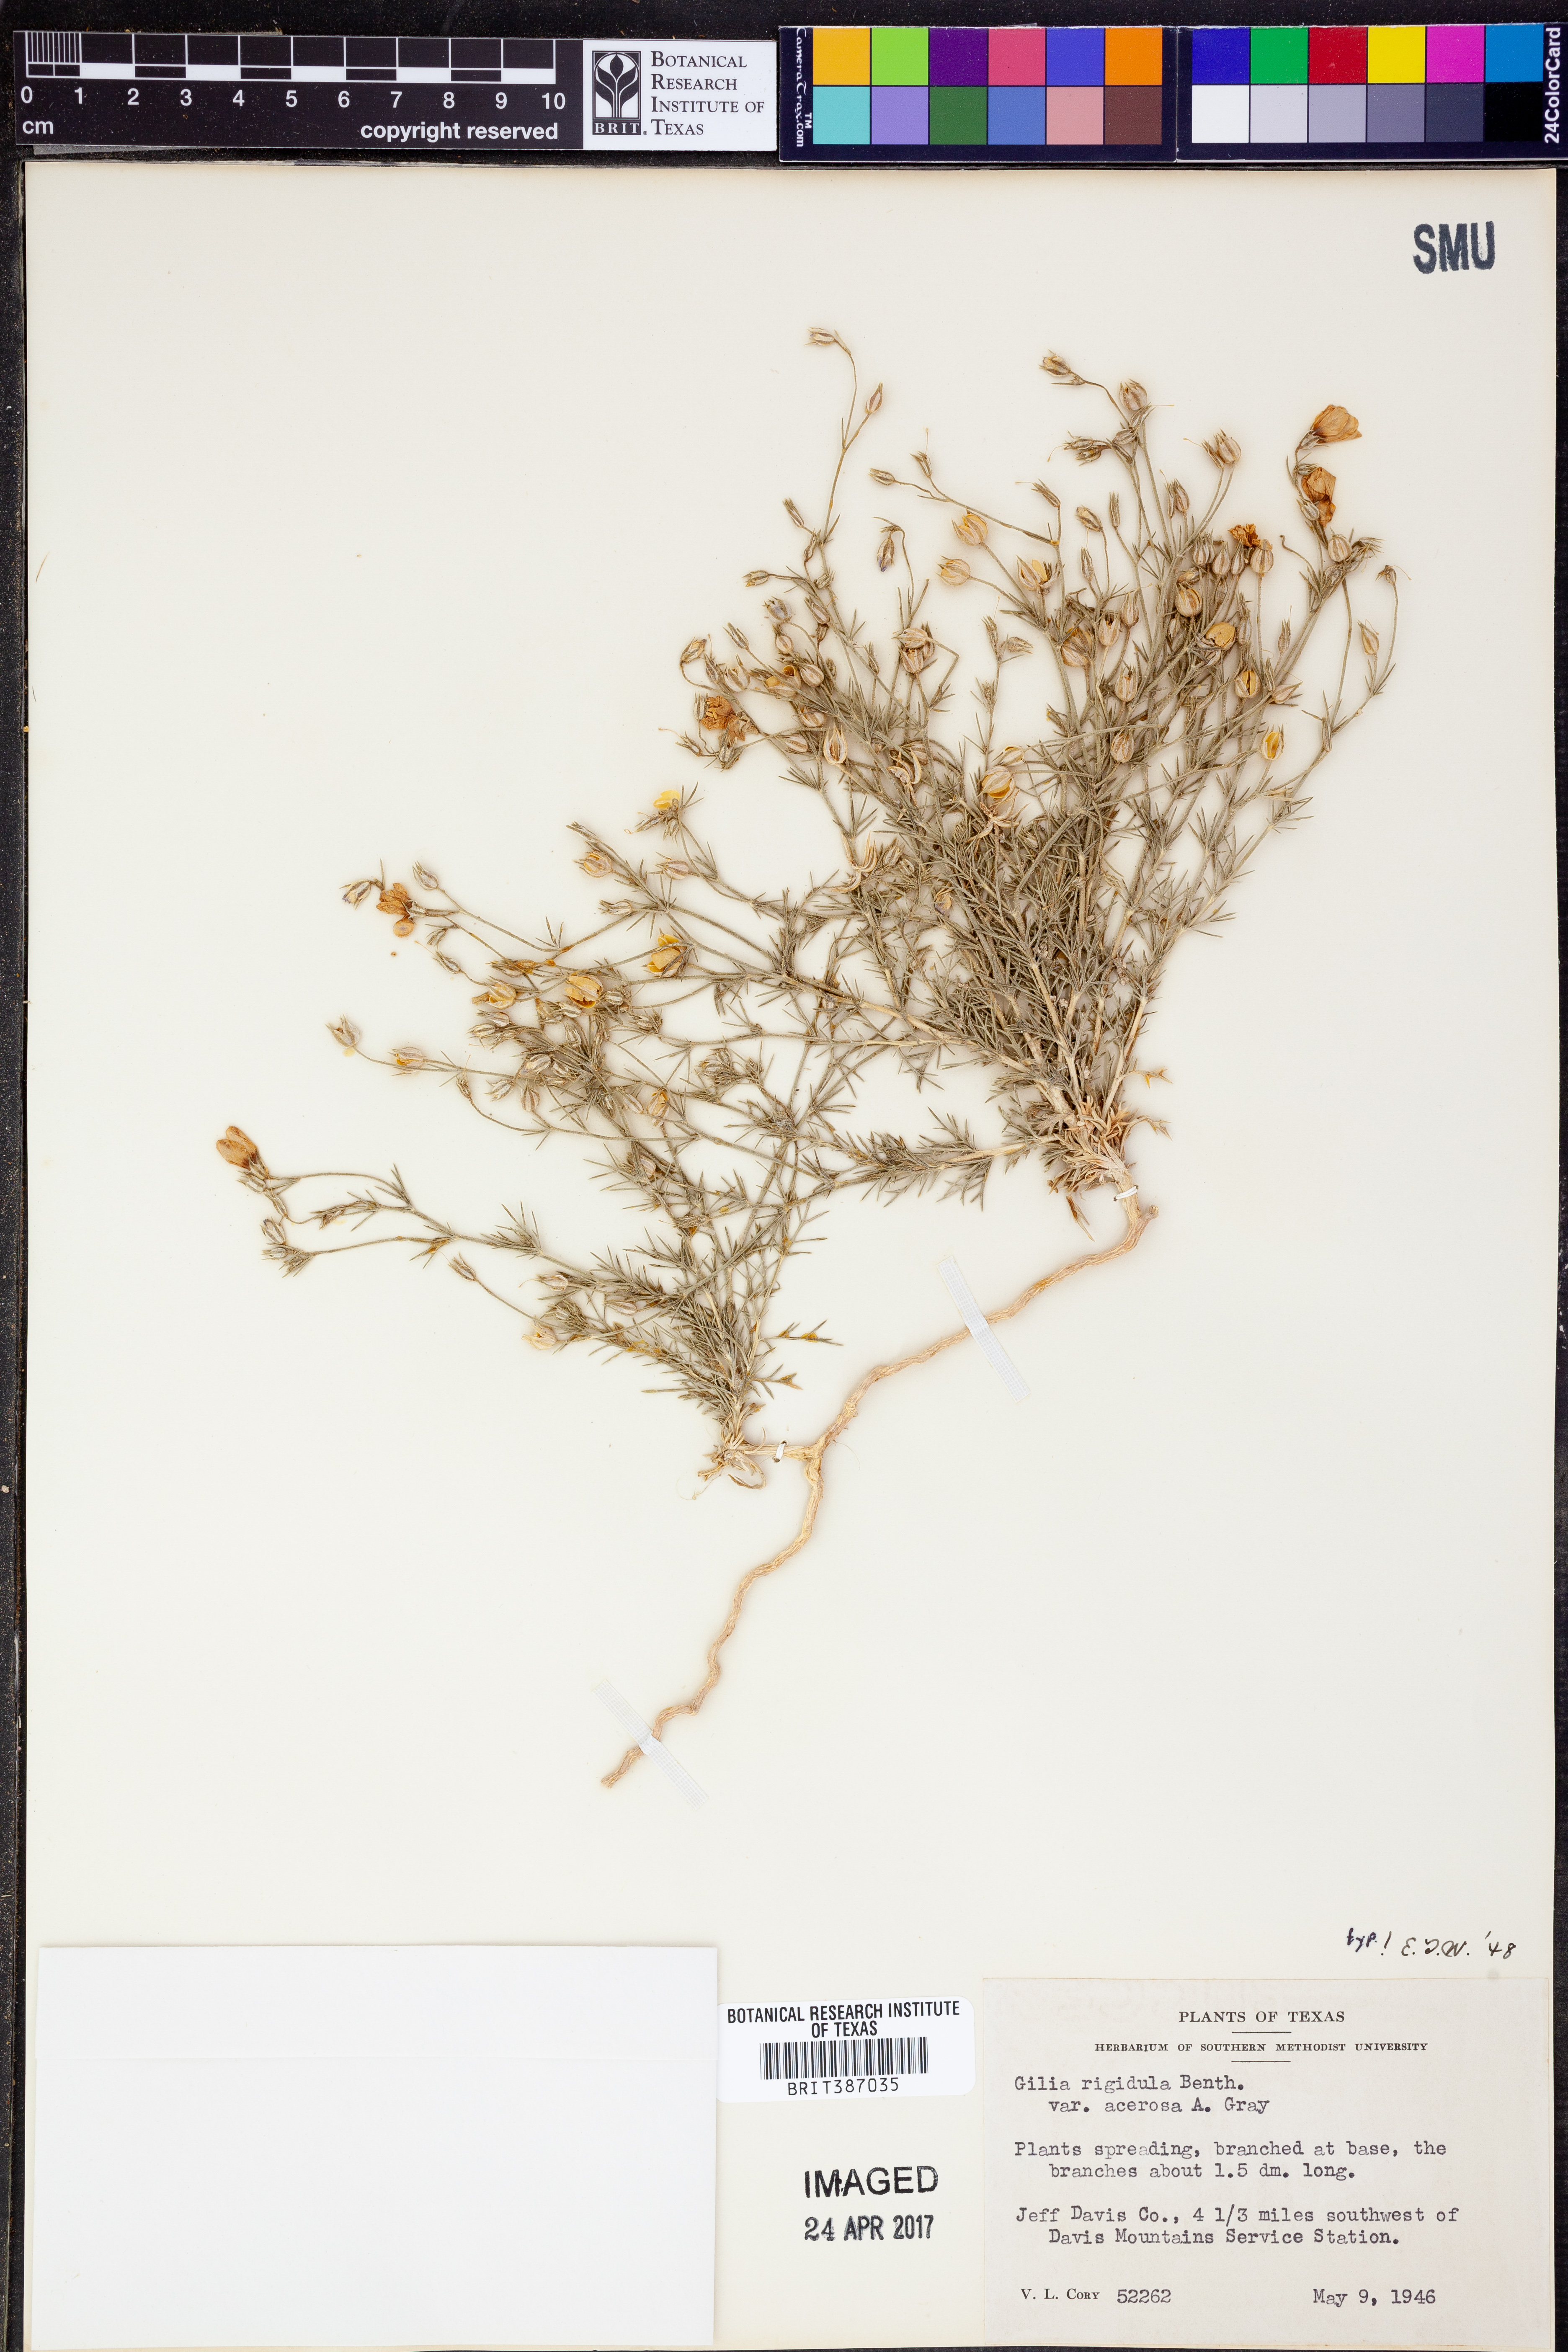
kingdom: Plantae
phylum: Tracheophyta
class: Magnoliopsida
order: Ericales
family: Polemoniaceae
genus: Giliastrum
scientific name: Giliastrum acerosum
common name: Bluebowls
